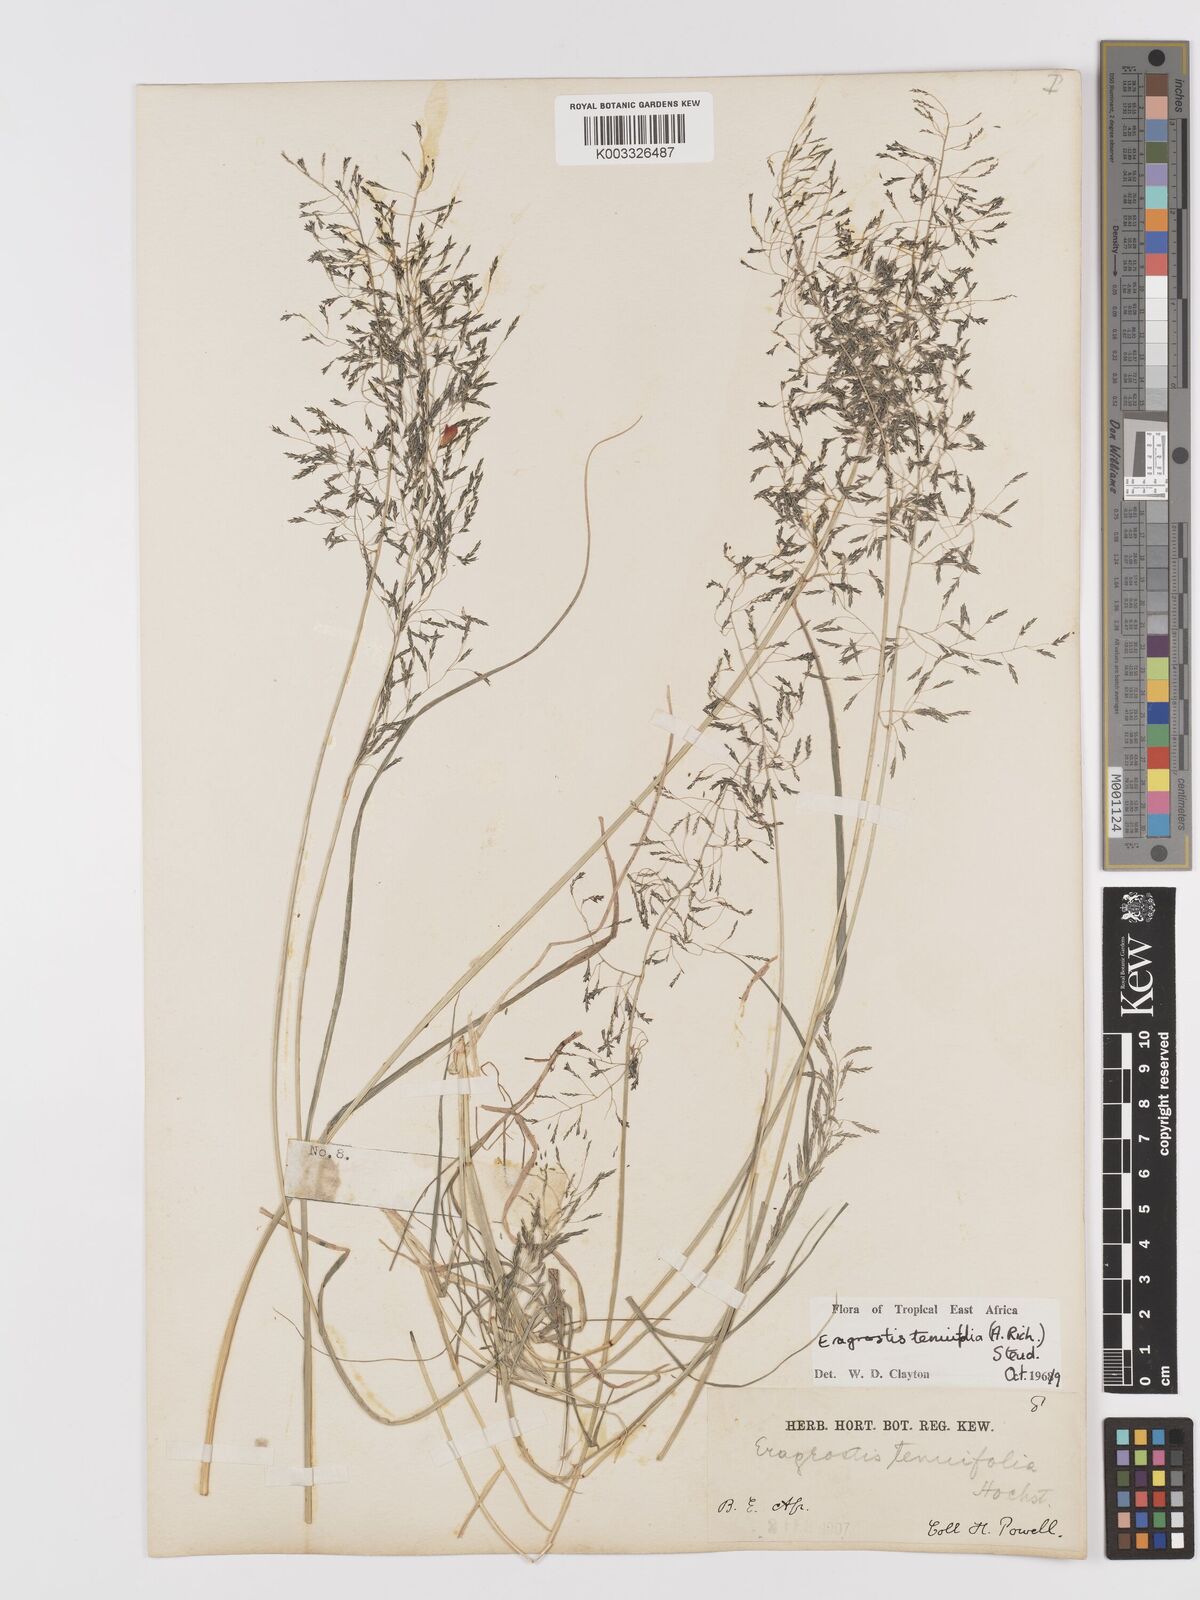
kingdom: Plantae
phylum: Tracheophyta
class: Liliopsida
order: Poales
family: Poaceae
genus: Eragrostis
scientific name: Eragrostis tenuifolia
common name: Elastic grass
